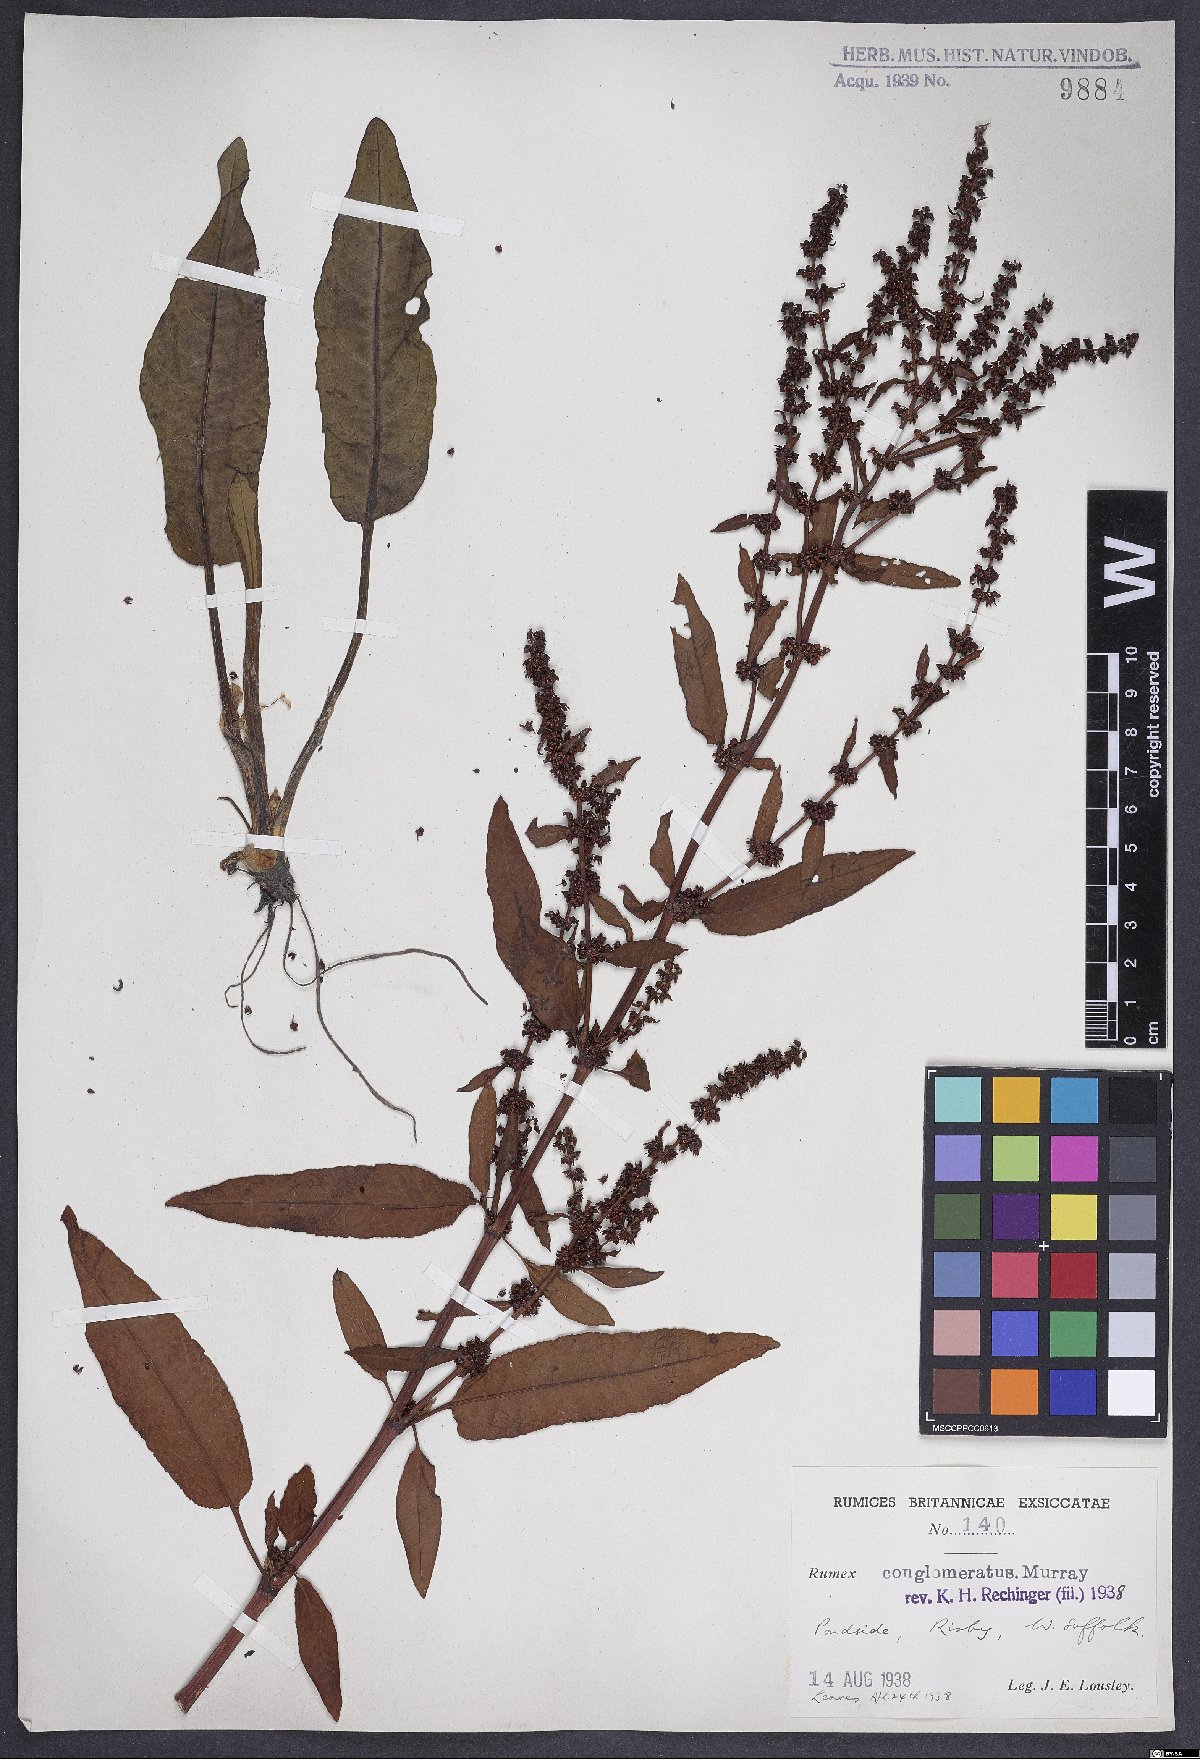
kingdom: Plantae
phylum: Tracheophyta
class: Magnoliopsida
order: Caryophyllales
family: Polygonaceae
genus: Rumex
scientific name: Rumex conglomeratus
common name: Clustered dock
